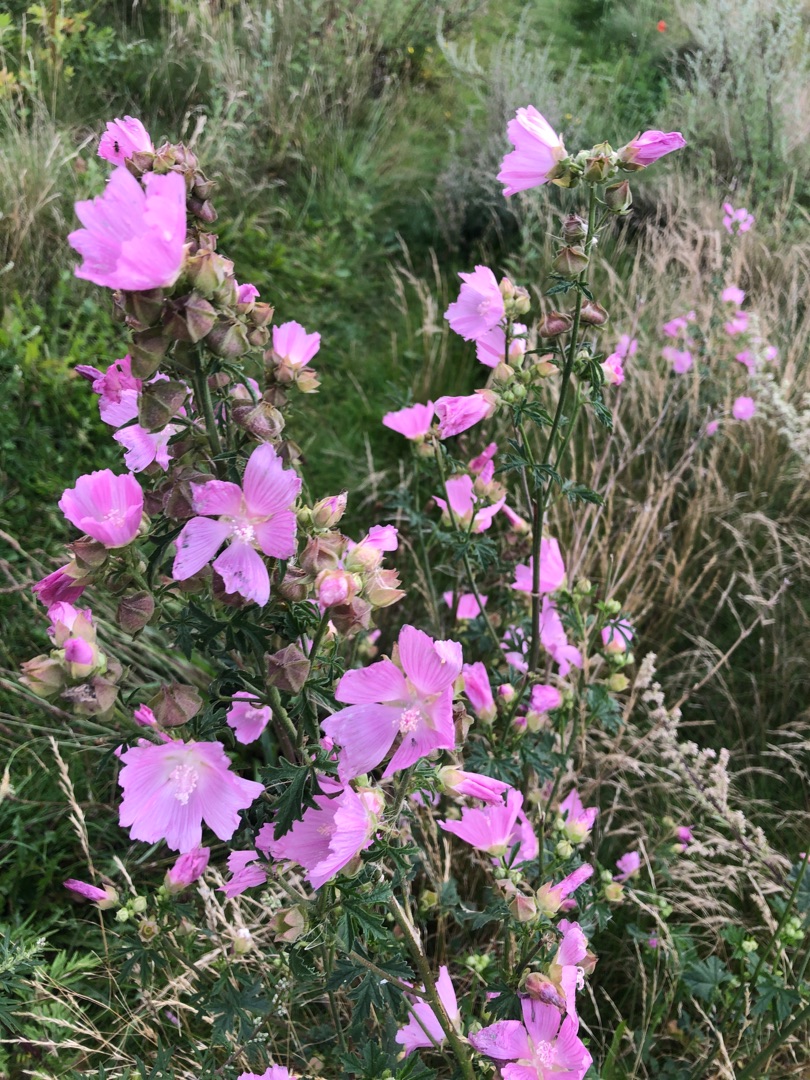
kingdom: Plantae
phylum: Tracheophyta
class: Magnoliopsida
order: Malvales
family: Malvaceae
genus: Malva
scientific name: Malva alcea
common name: Rosen-katost
